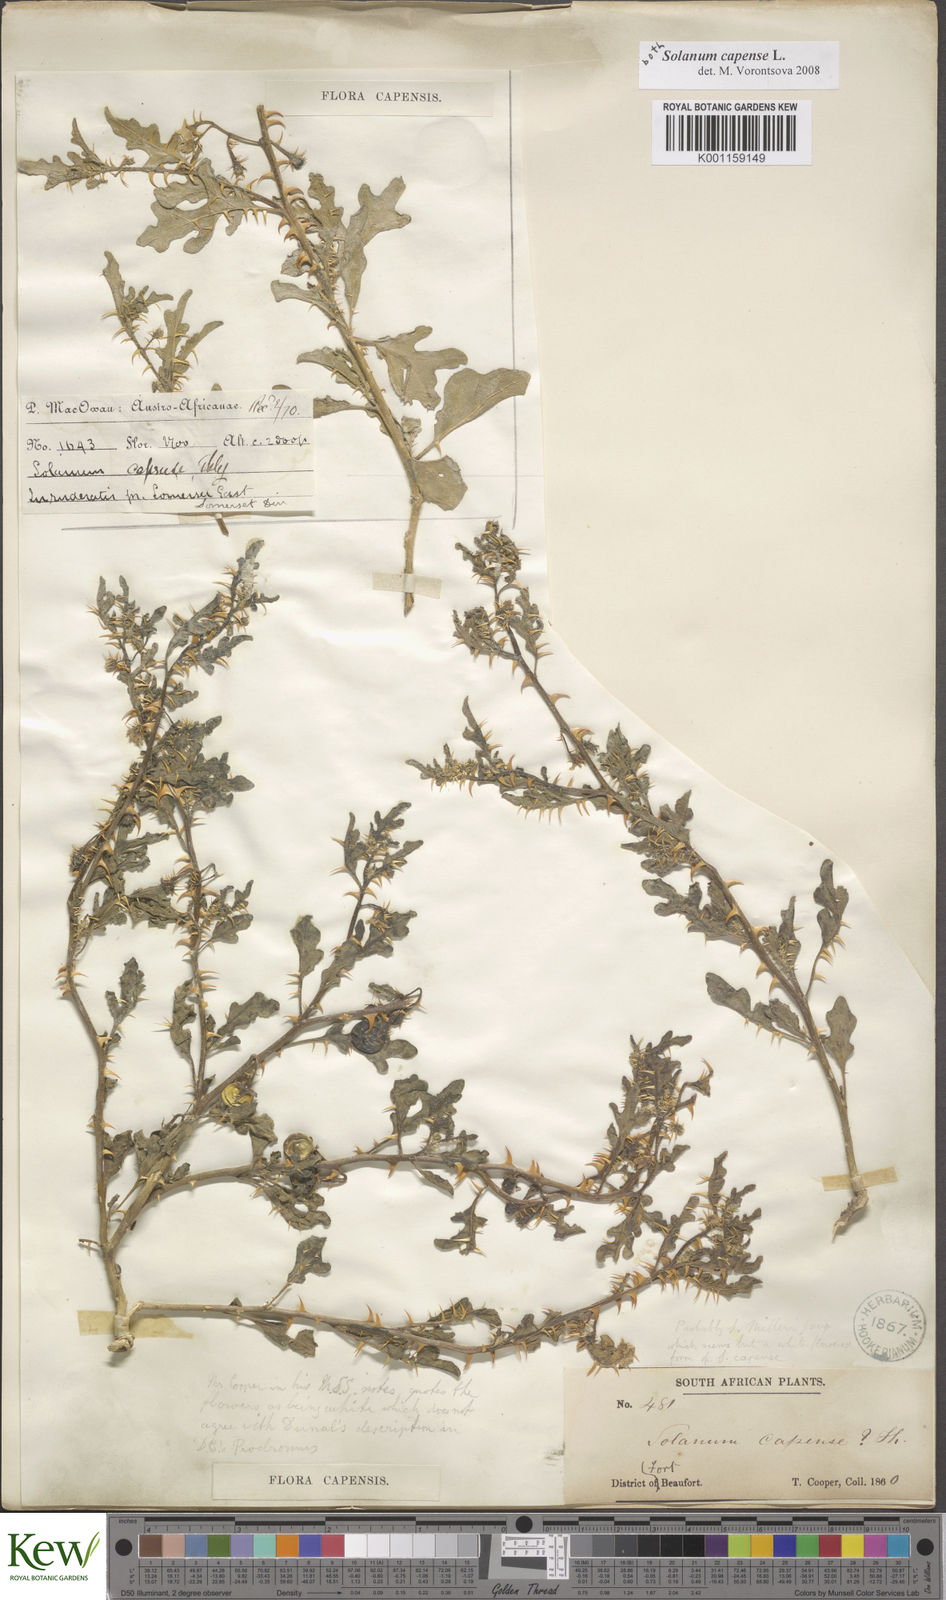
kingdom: Plantae
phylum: Tracheophyta
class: Magnoliopsida
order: Solanales
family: Solanaceae
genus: Solanum
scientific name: Solanum capense
